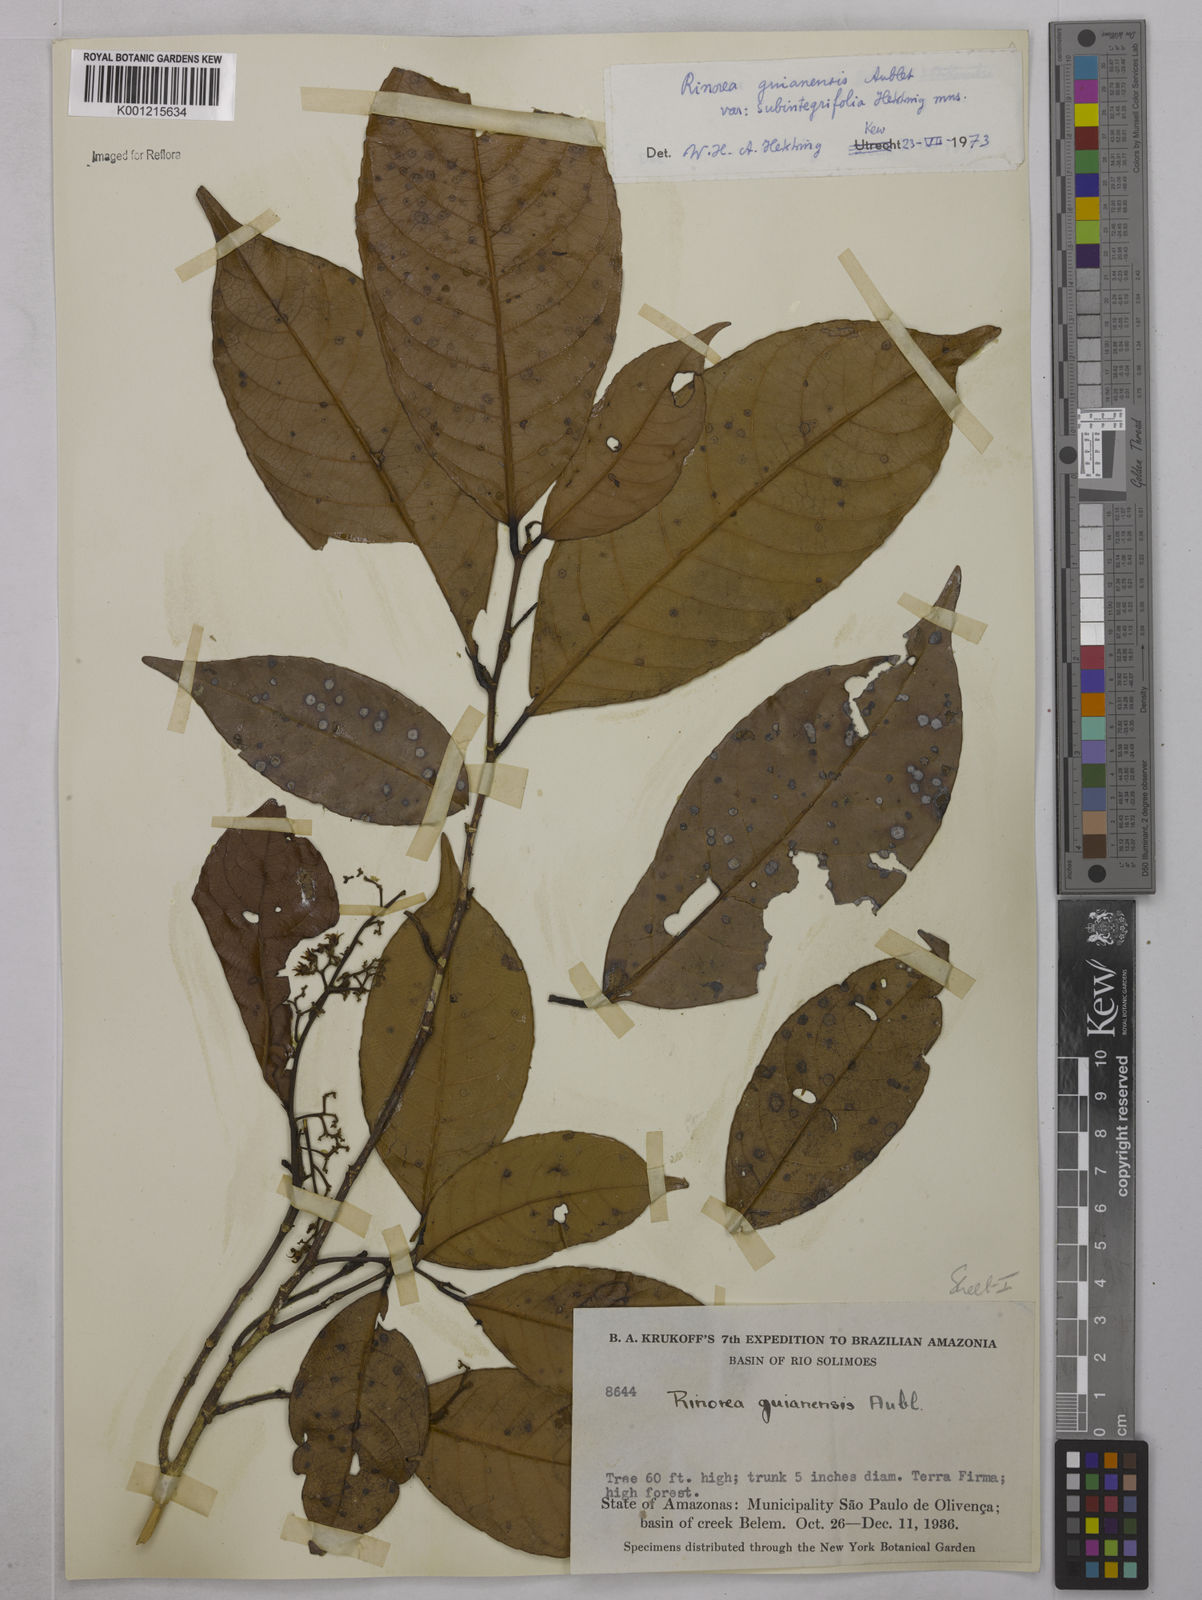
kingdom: Plantae
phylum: Tracheophyta
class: Magnoliopsida
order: Malpighiales
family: Violaceae
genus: Rinorea
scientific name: Rinorea guianensis
